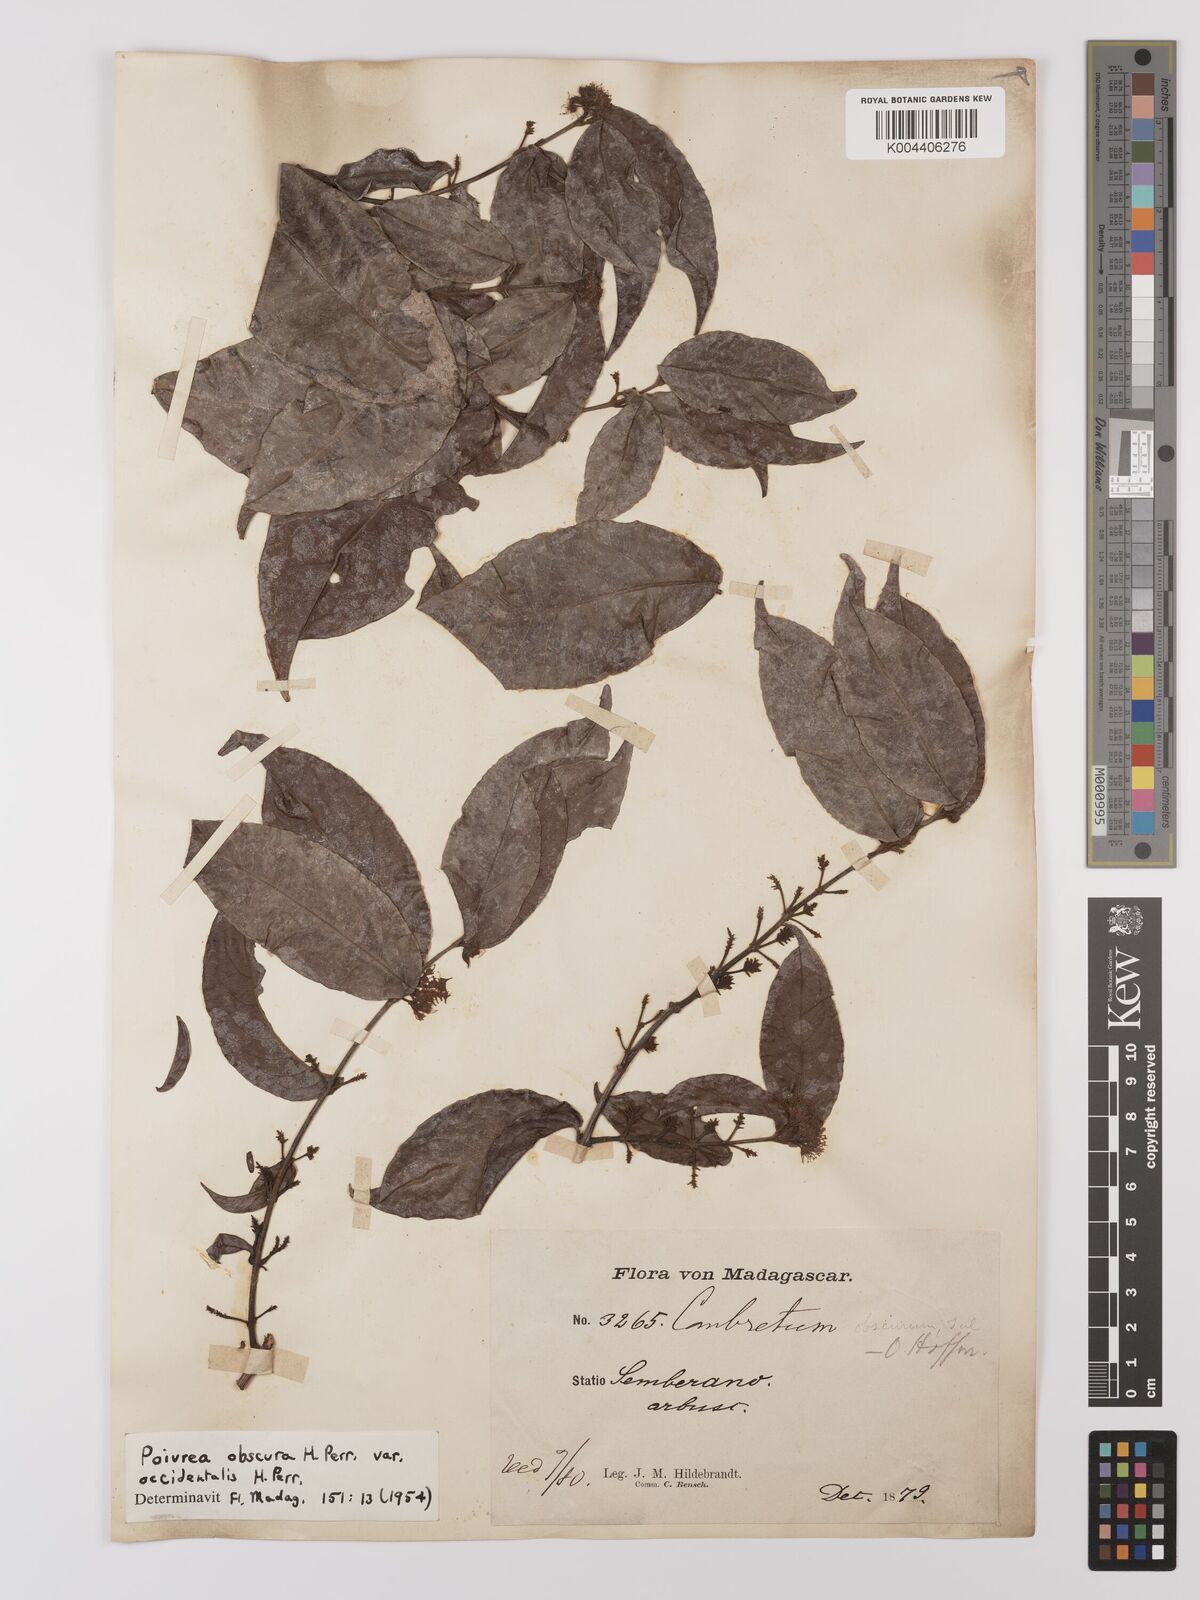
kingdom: Plantae
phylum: Tracheophyta
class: Magnoliopsida
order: Myrtales
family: Combretaceae
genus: Combretum
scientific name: Combretum obscurum
